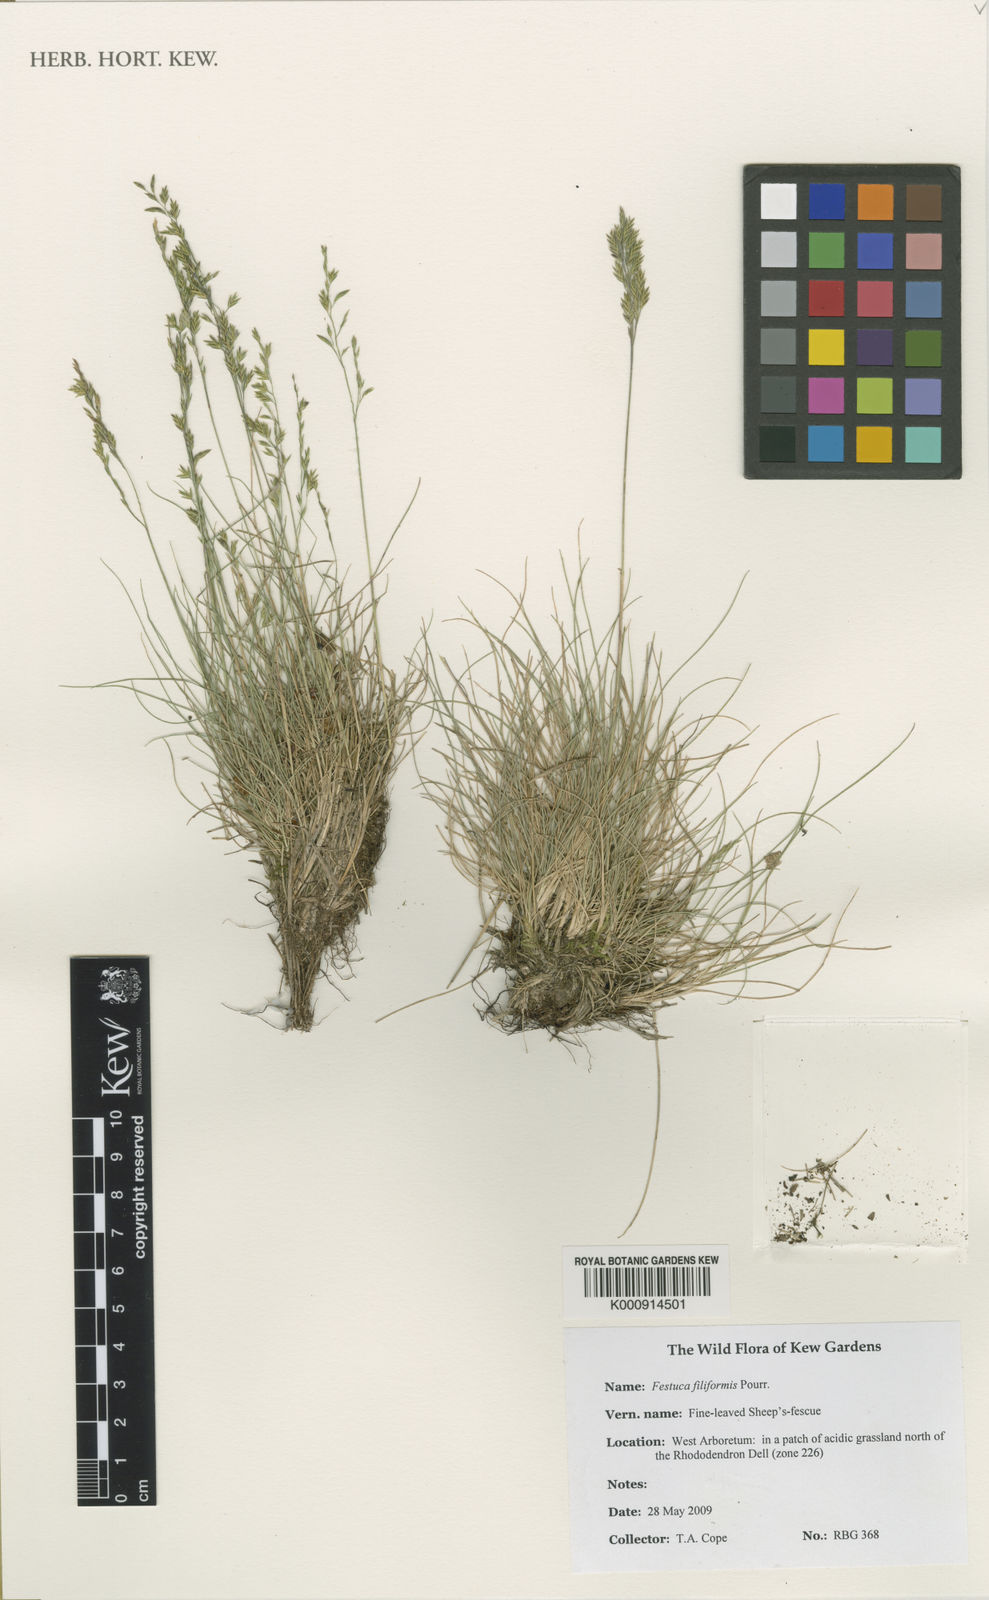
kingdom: Plantae
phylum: Tracheophyta
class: Liliopsida
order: Poales
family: Poaceae
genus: Festuca
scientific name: Festuca filiformis
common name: Fine-leaved sheep's-fescue
